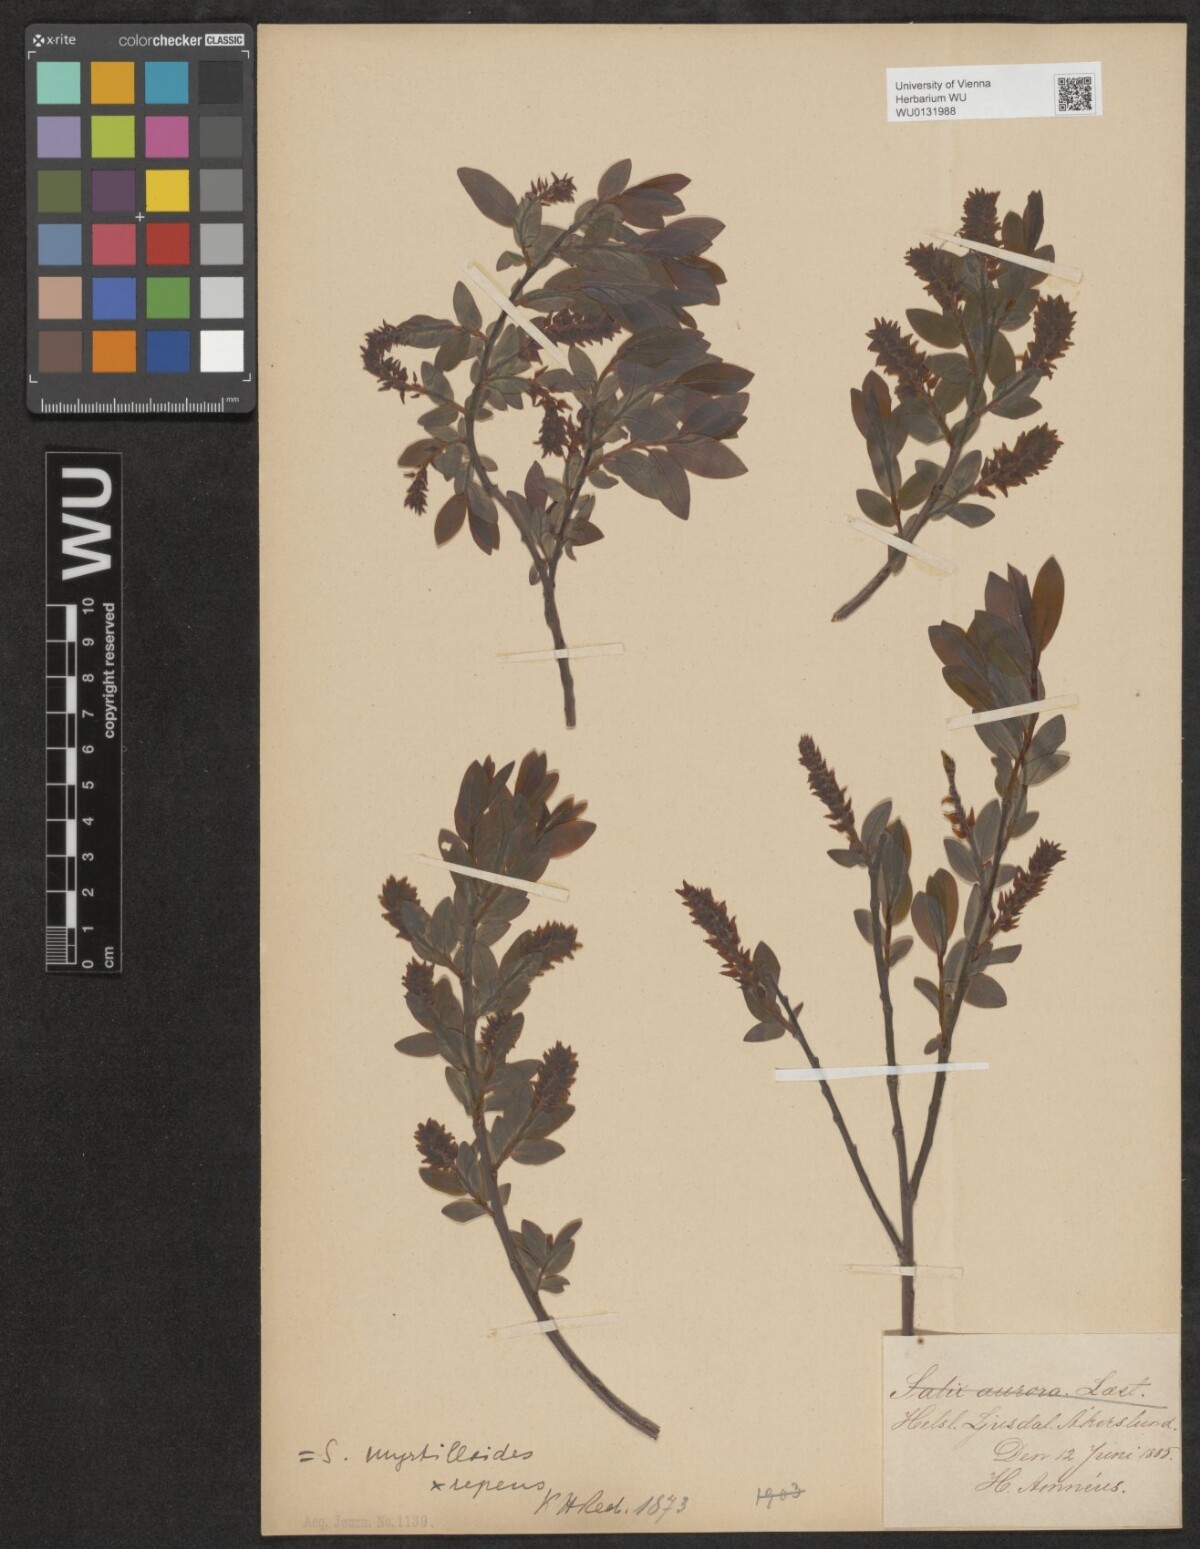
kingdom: Plantae
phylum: Tracheophyta
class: Magnoliopsida
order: Malpighiales
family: Salicaceae
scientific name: Salicaceae
